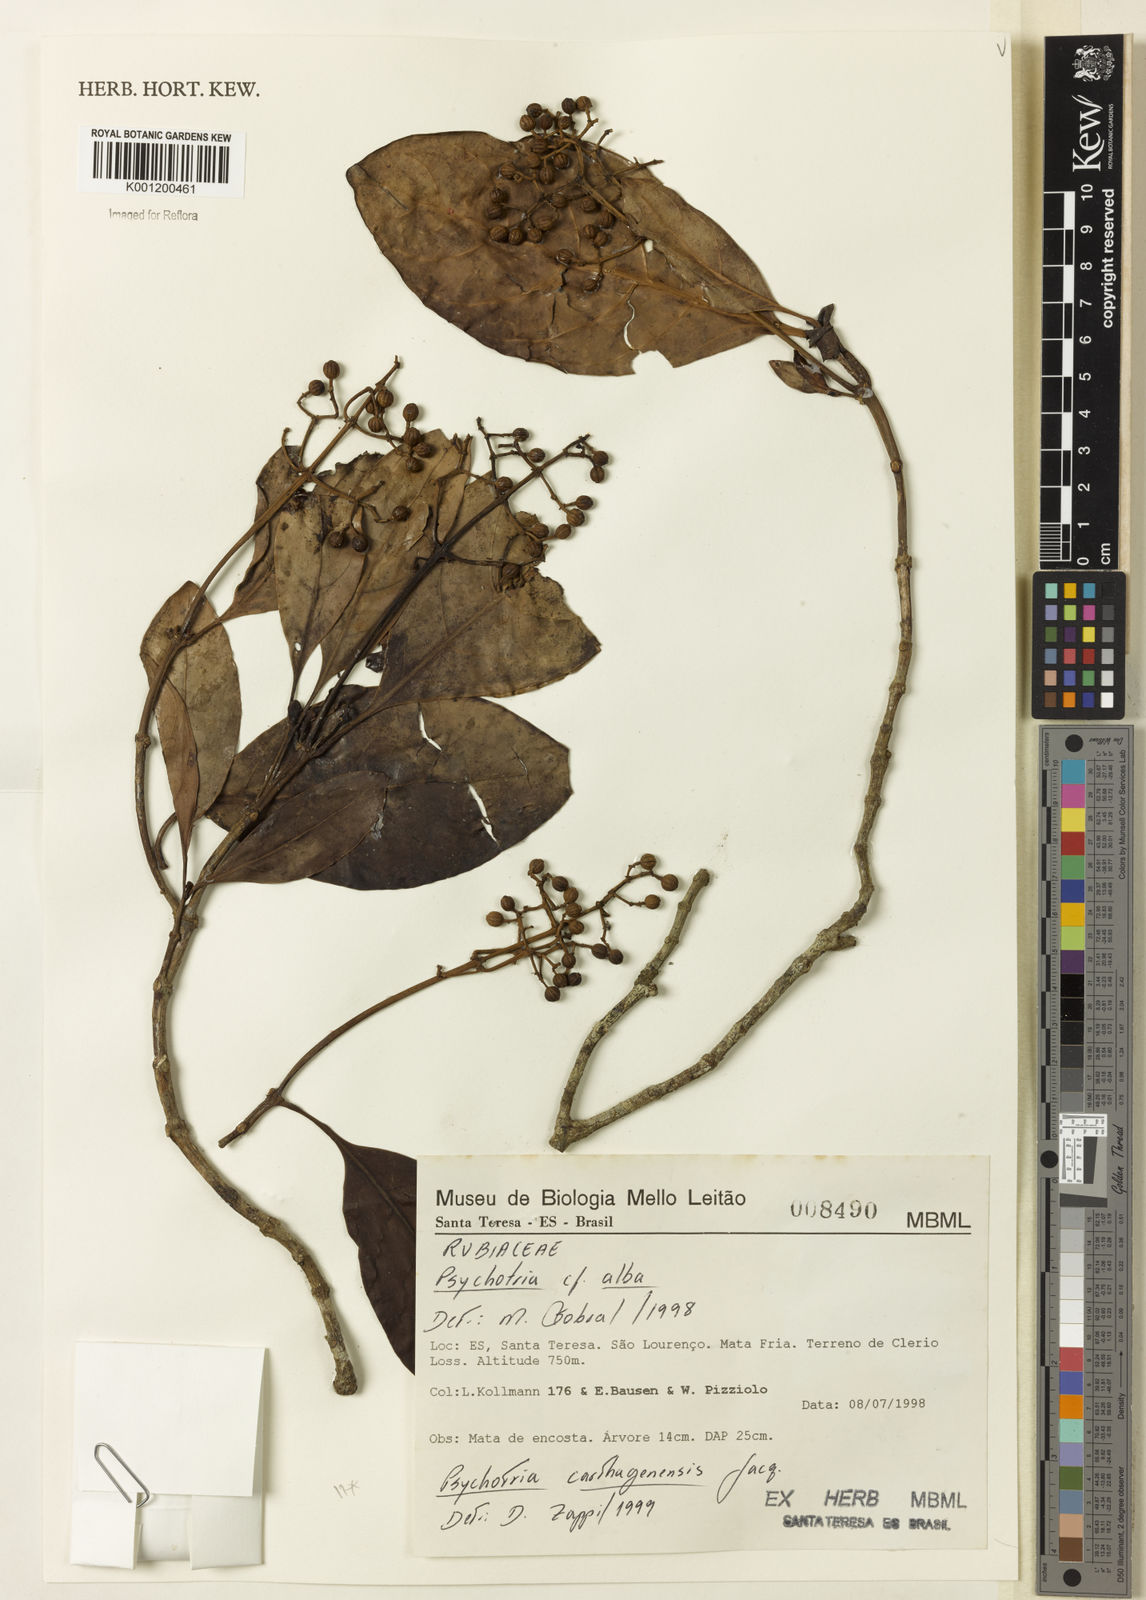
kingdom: Plantae
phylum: Tracheophyta
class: Magnoliopsida
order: Gentianales
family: Rubiaceae
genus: Psychotria
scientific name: Psychotria carthagenensis
